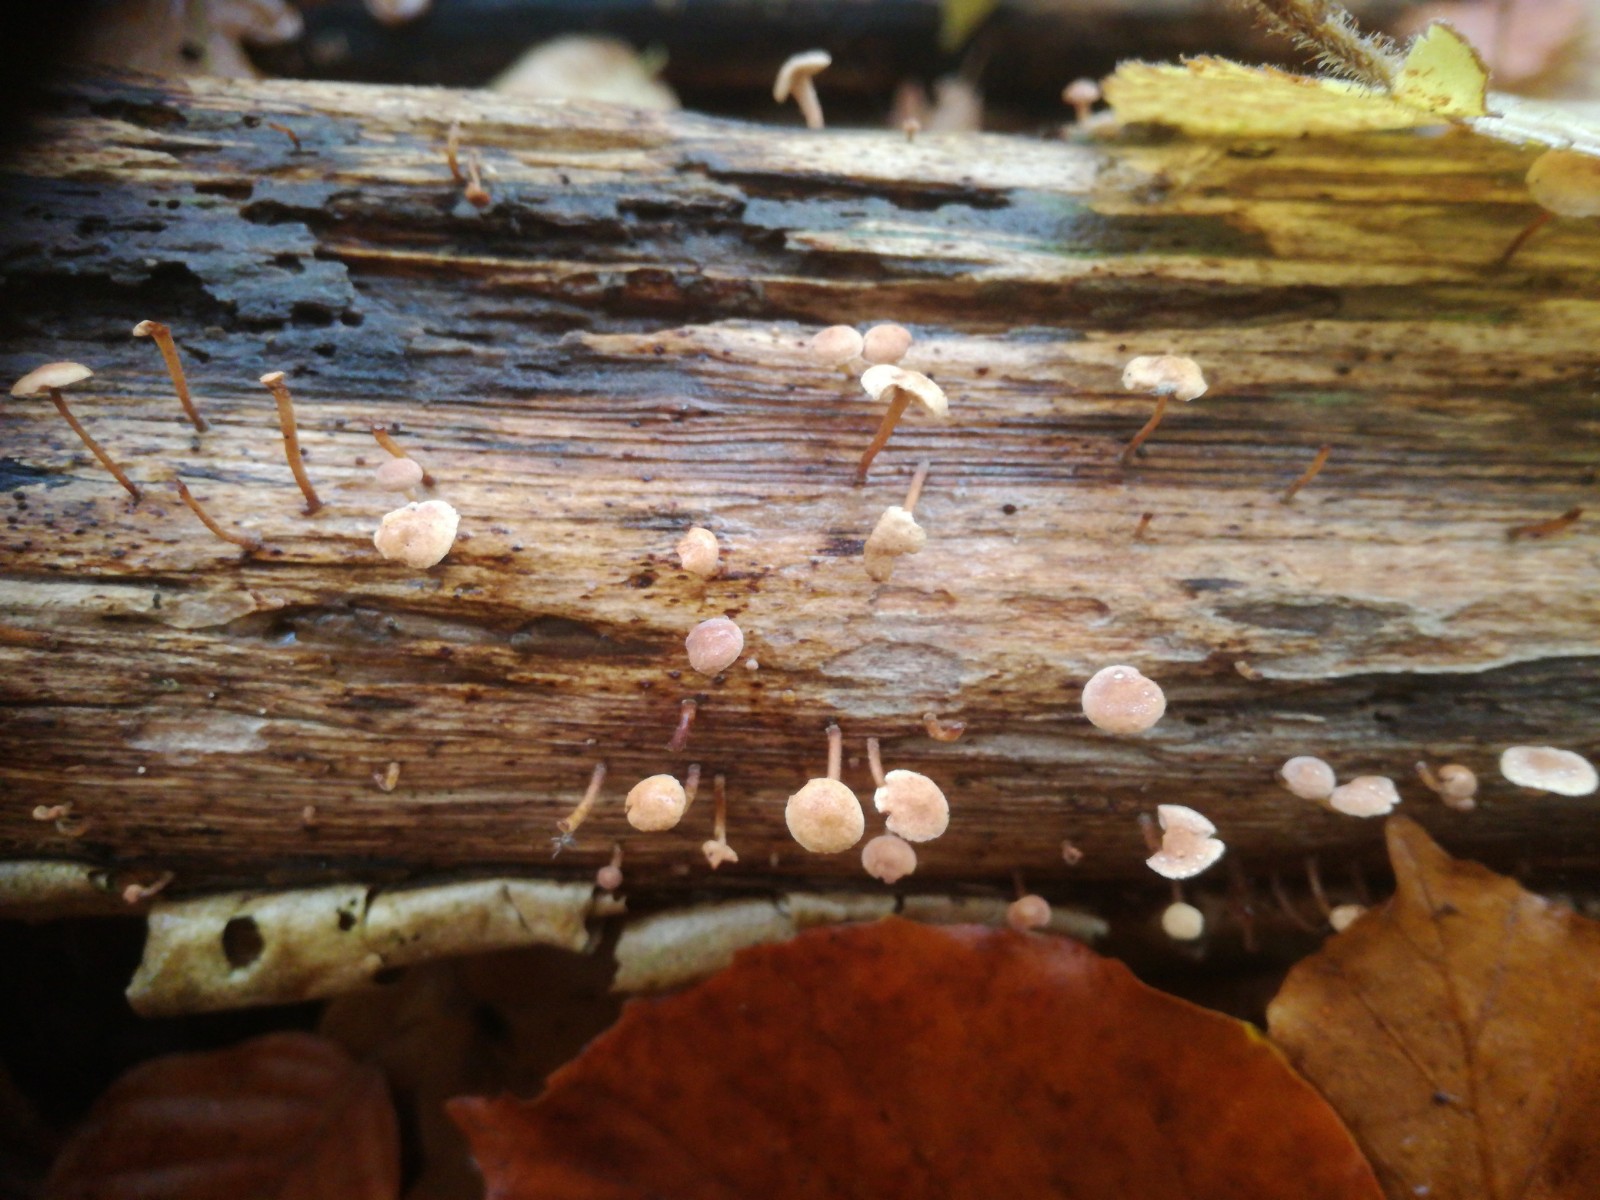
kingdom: Fungi
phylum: Basidiomycota
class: Agaricomycetes
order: Agaricales
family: Omphalotaceae
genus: Collybiopsis
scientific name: Collybiopsis ramealis
